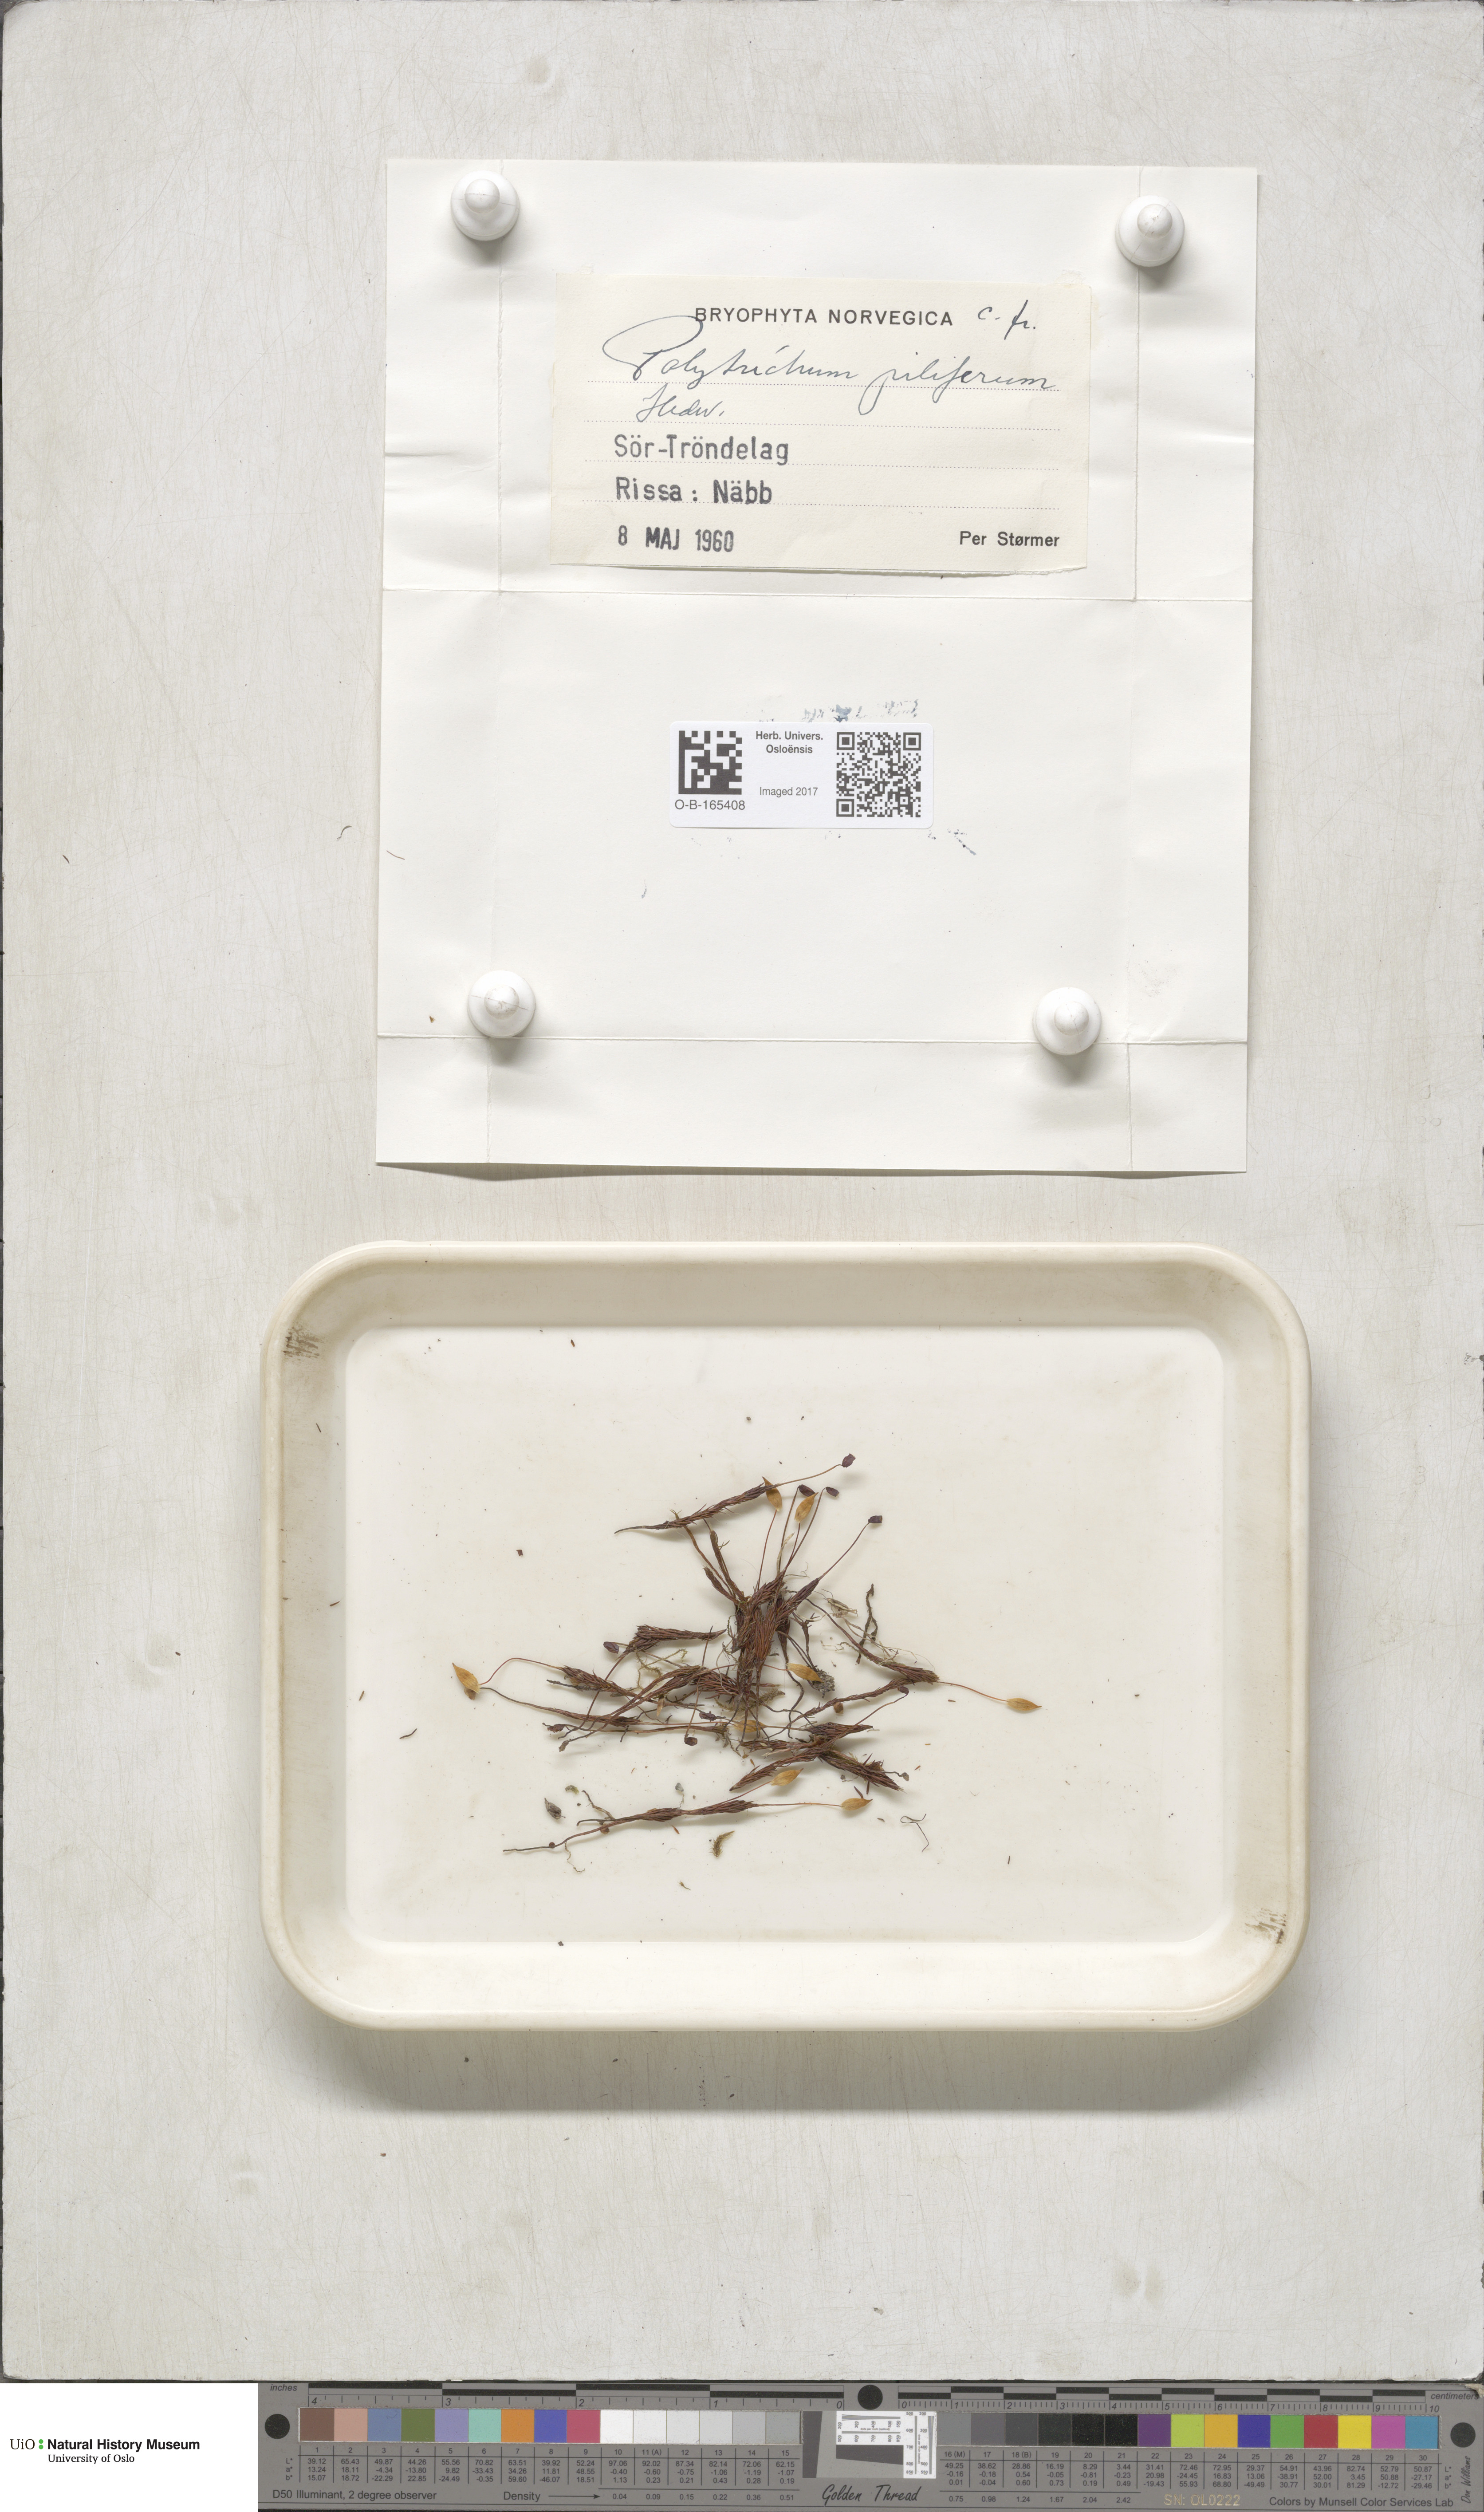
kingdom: Plantae
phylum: Bryophyta
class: Polytrichopsida
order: Polytrichales
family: Polytrichaceae
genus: Polytrichum
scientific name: Polytrichum piliferum
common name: Bristly haircap
